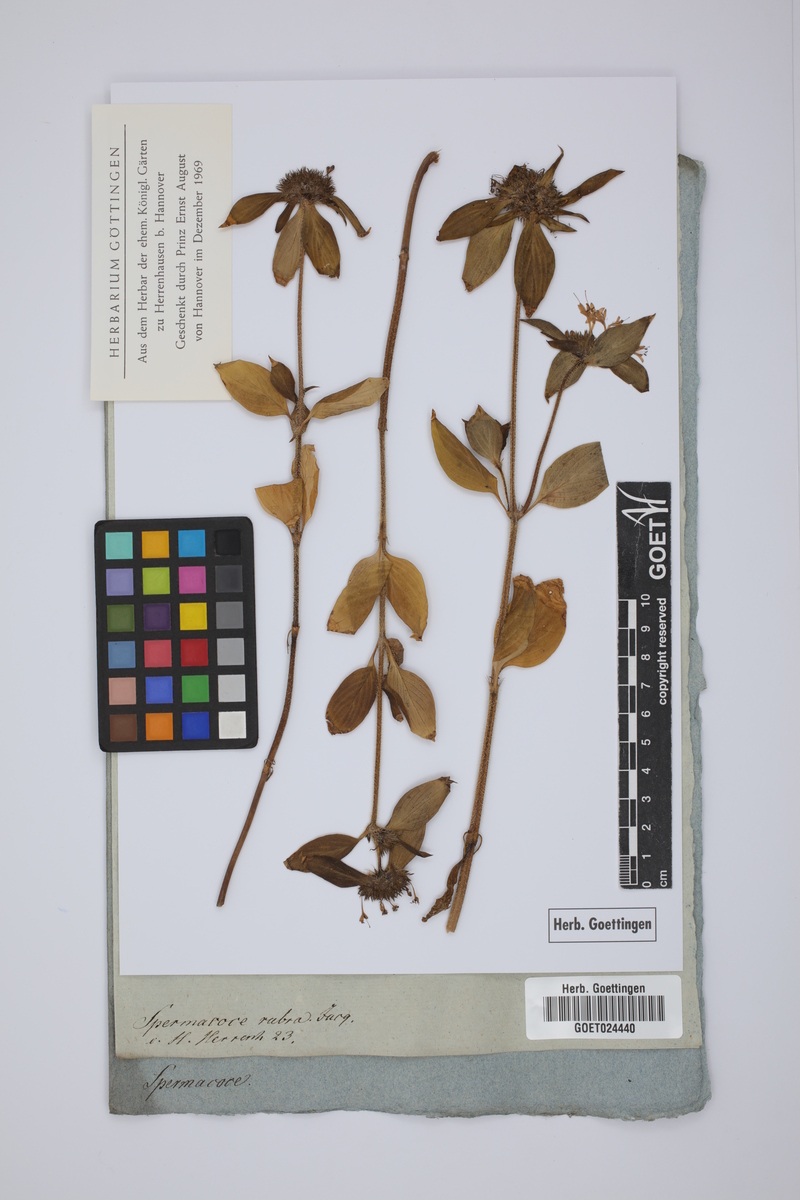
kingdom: Plantae
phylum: Tracheophyta
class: Magnoliopsida
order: Gentianales
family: Rubiaceae
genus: Crusea
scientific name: Crusea hispida
